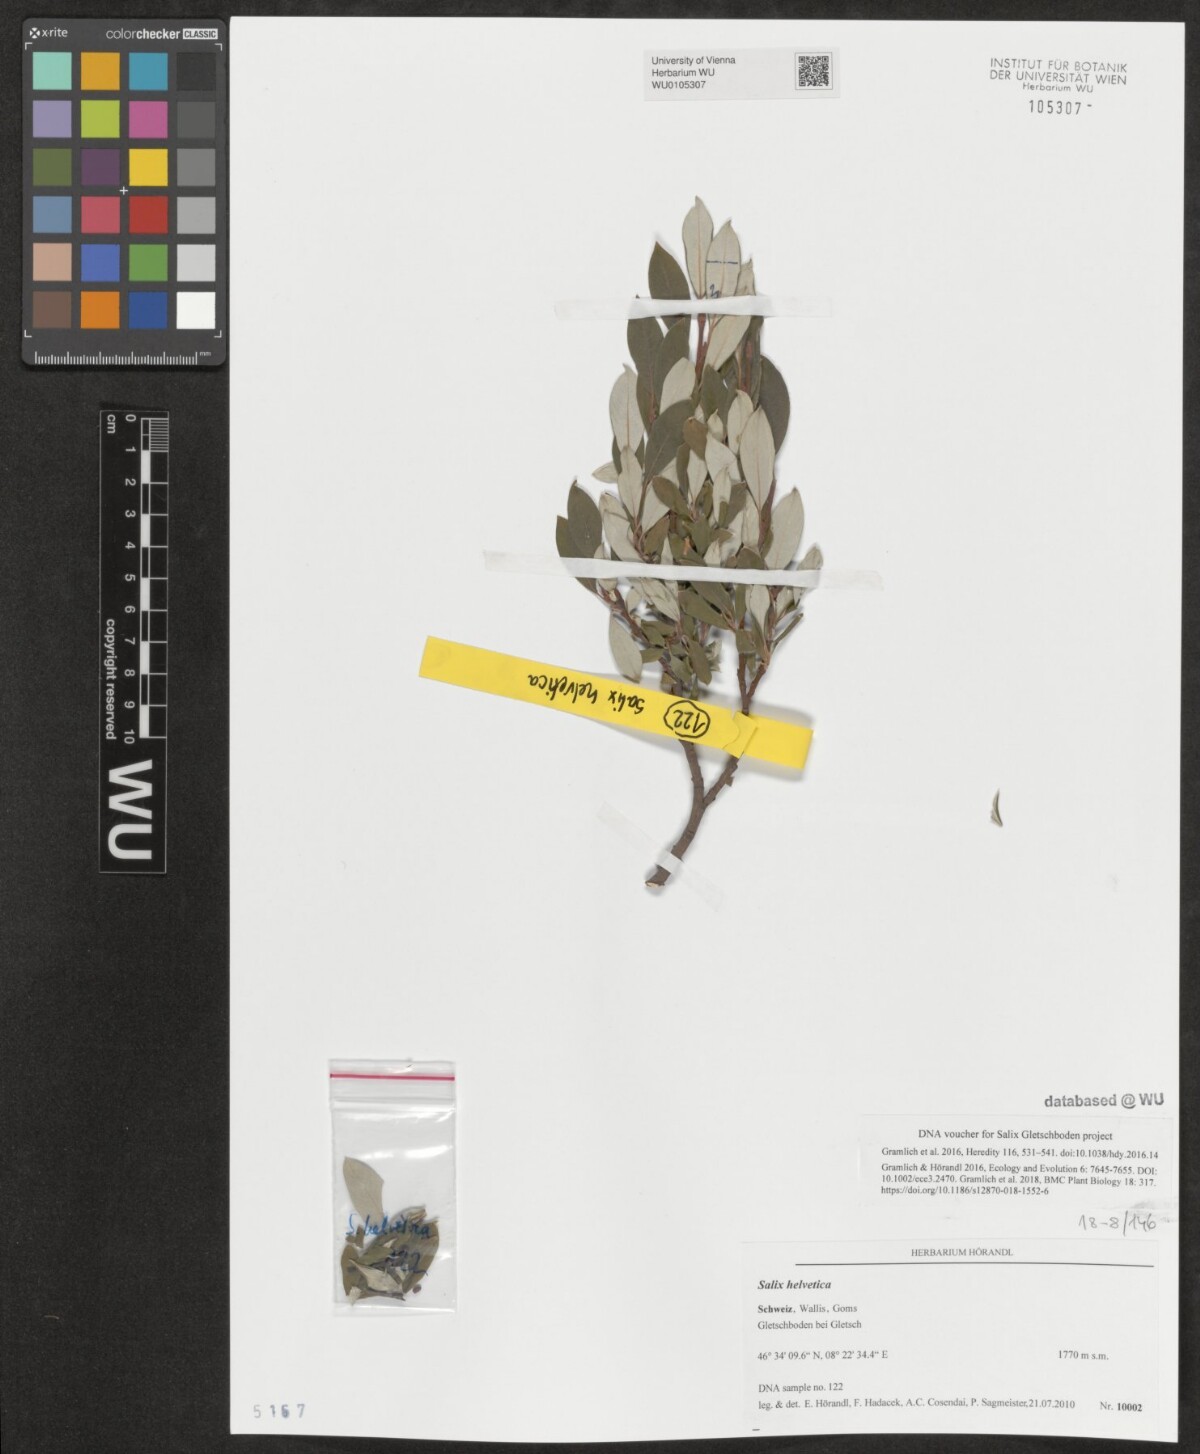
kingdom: Plantae
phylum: Tracheophyta
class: Magnoliopsida
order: Malpighiales
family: Salicaceae
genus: Salix
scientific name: Salix helvetica
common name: Swiss willow
